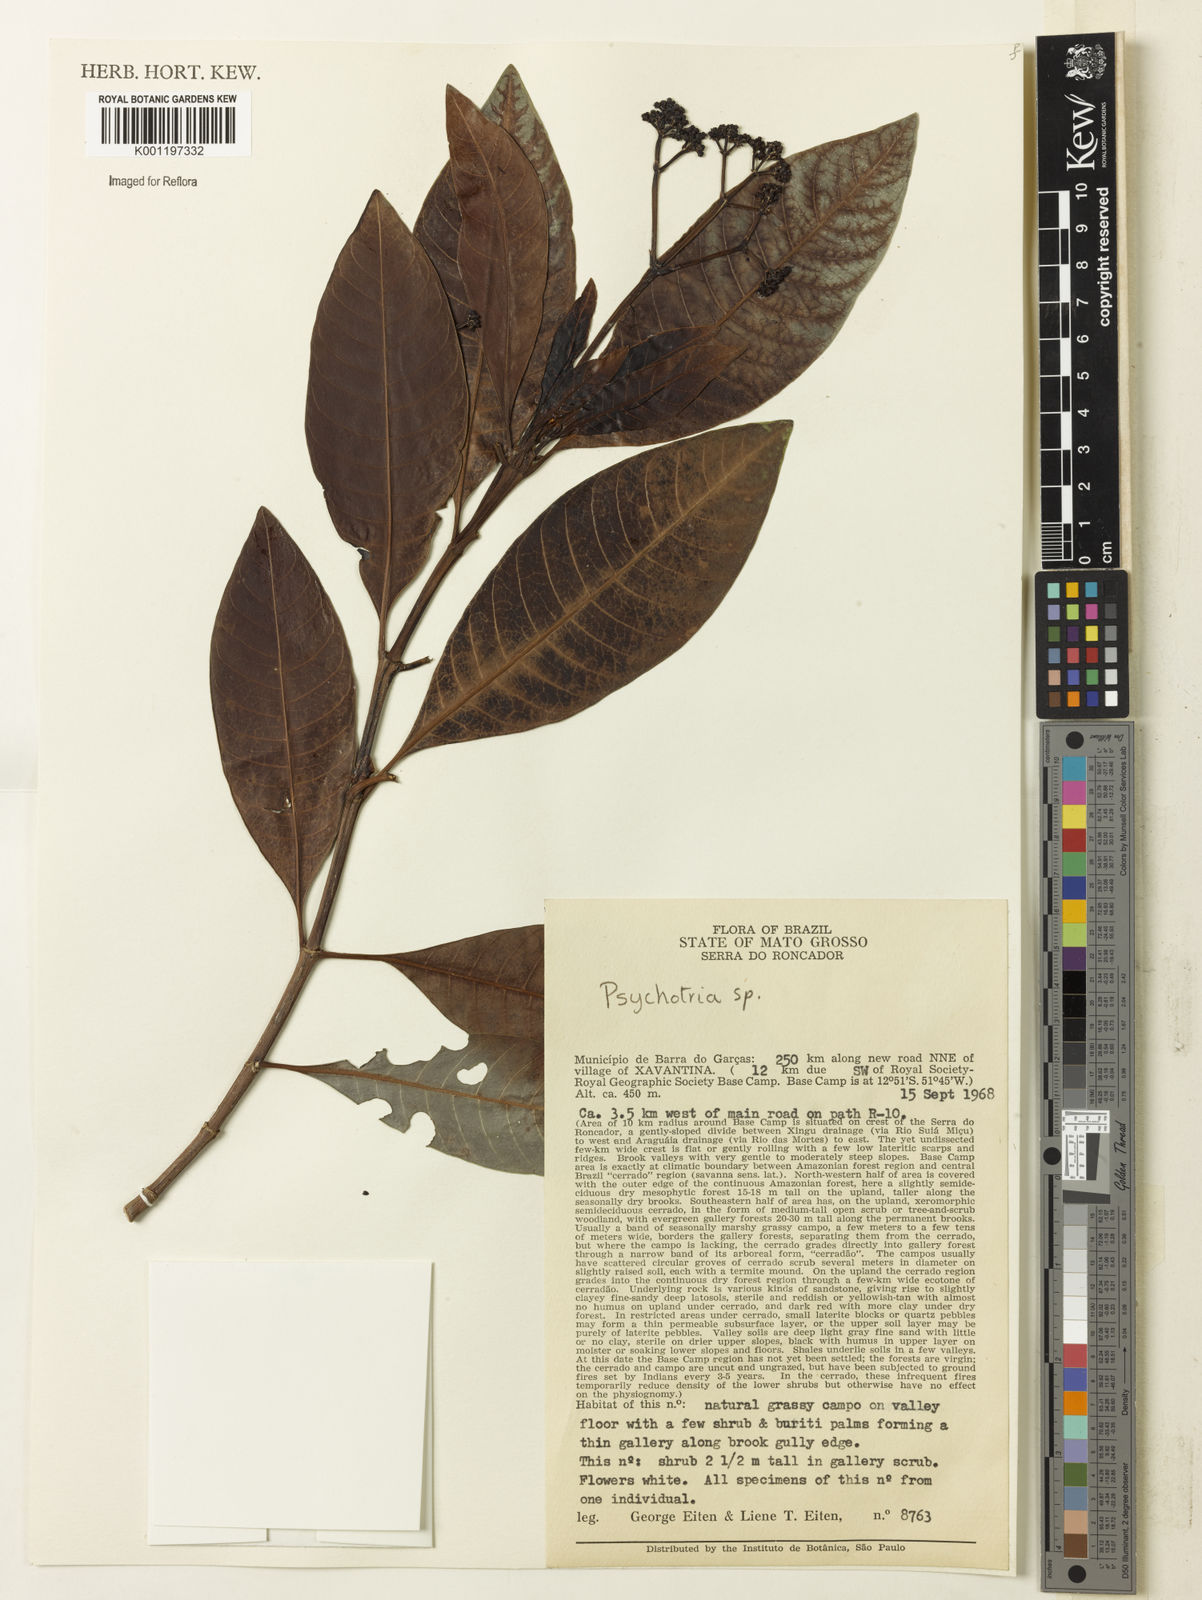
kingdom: Plantae
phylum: Tracheophyta
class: Magnoliopsida
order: Gentianales
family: Rubiaceae
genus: Psychotria
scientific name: Psychotria anceps
